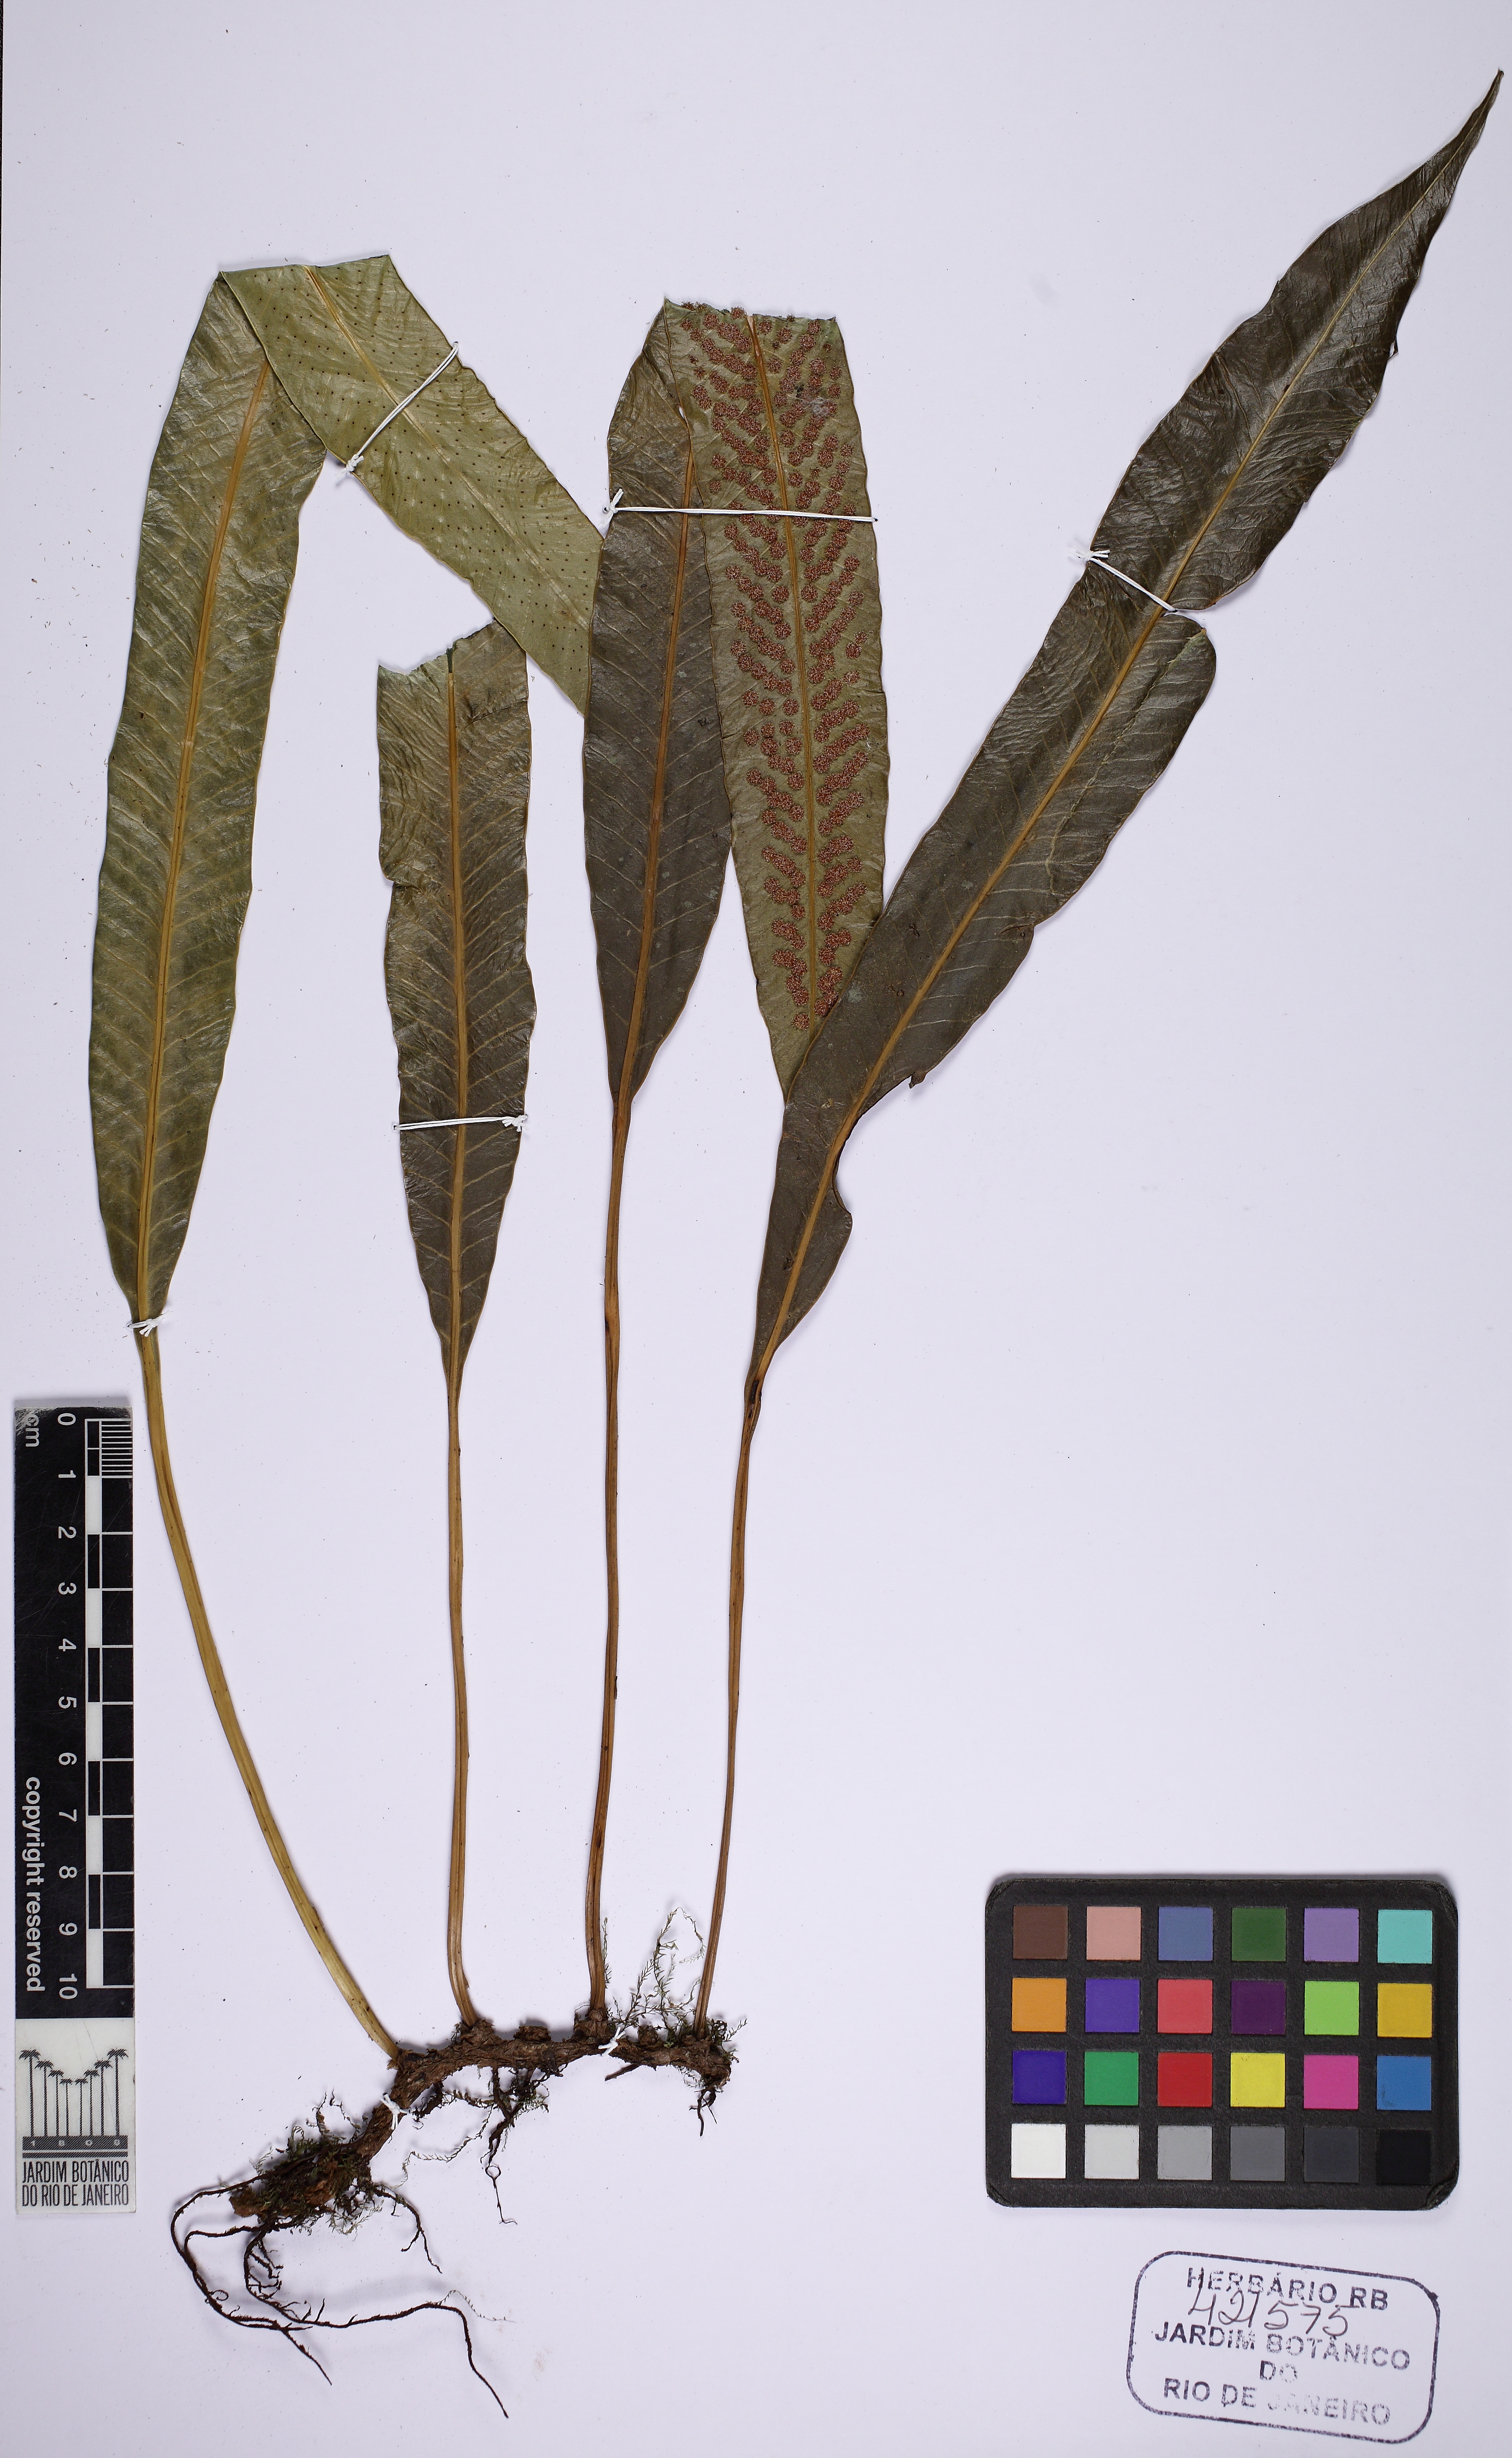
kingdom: Plantae
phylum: Tracheophyta
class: Polypodiopsida
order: Polypodiales
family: Polypodiaceae
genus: Campyloneurum
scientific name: Campyloneurum fallax
